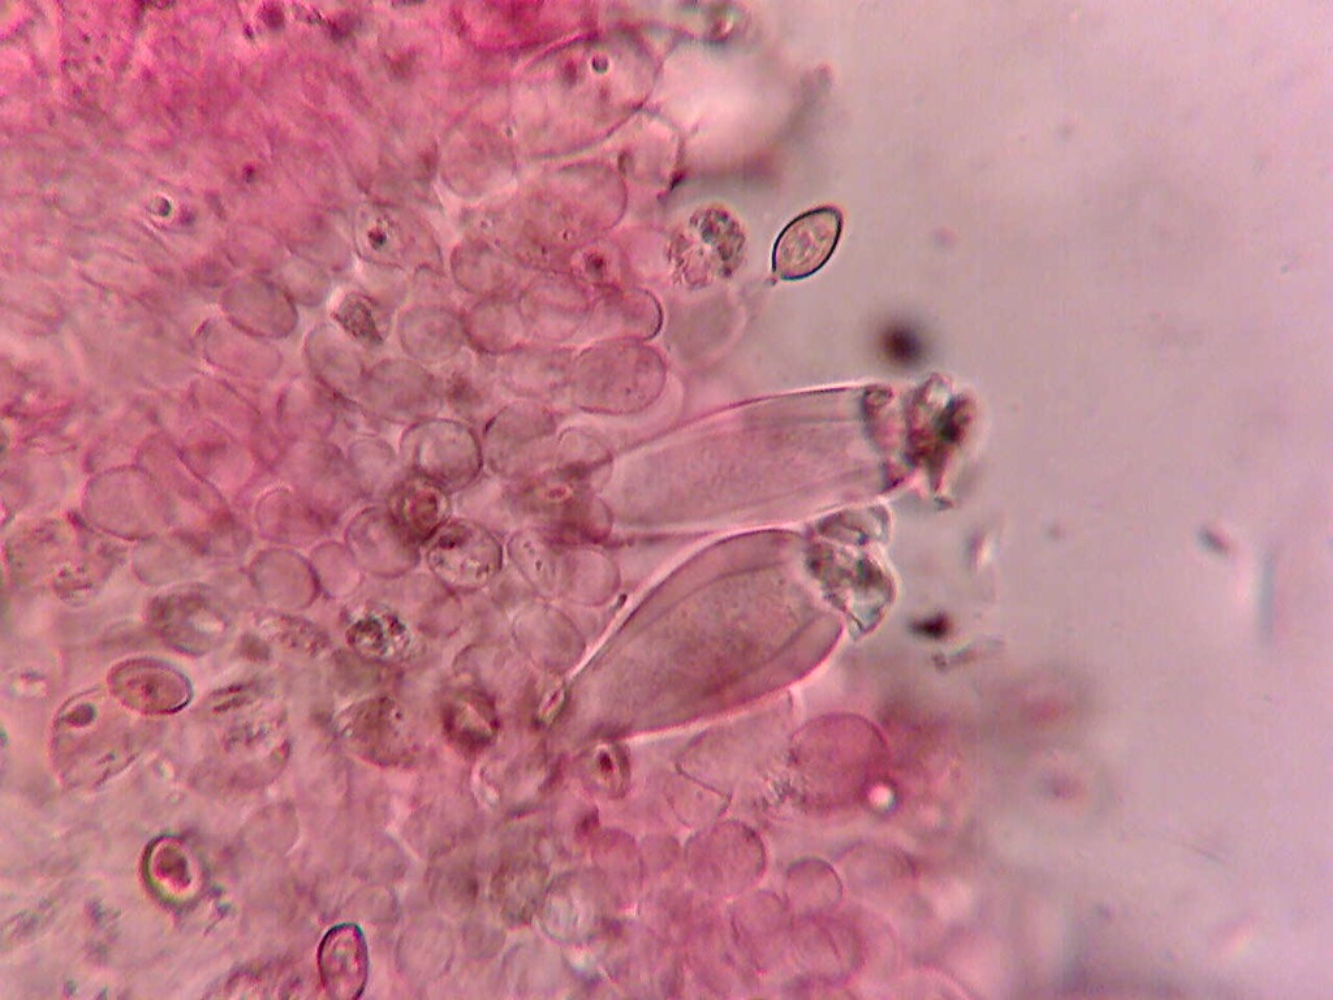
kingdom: Fungi
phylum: Basidiomycota
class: Agaricomycetes
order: Agaricales
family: Inocybaceae
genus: Inocybe
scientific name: Inocybe brunneotomentosa
